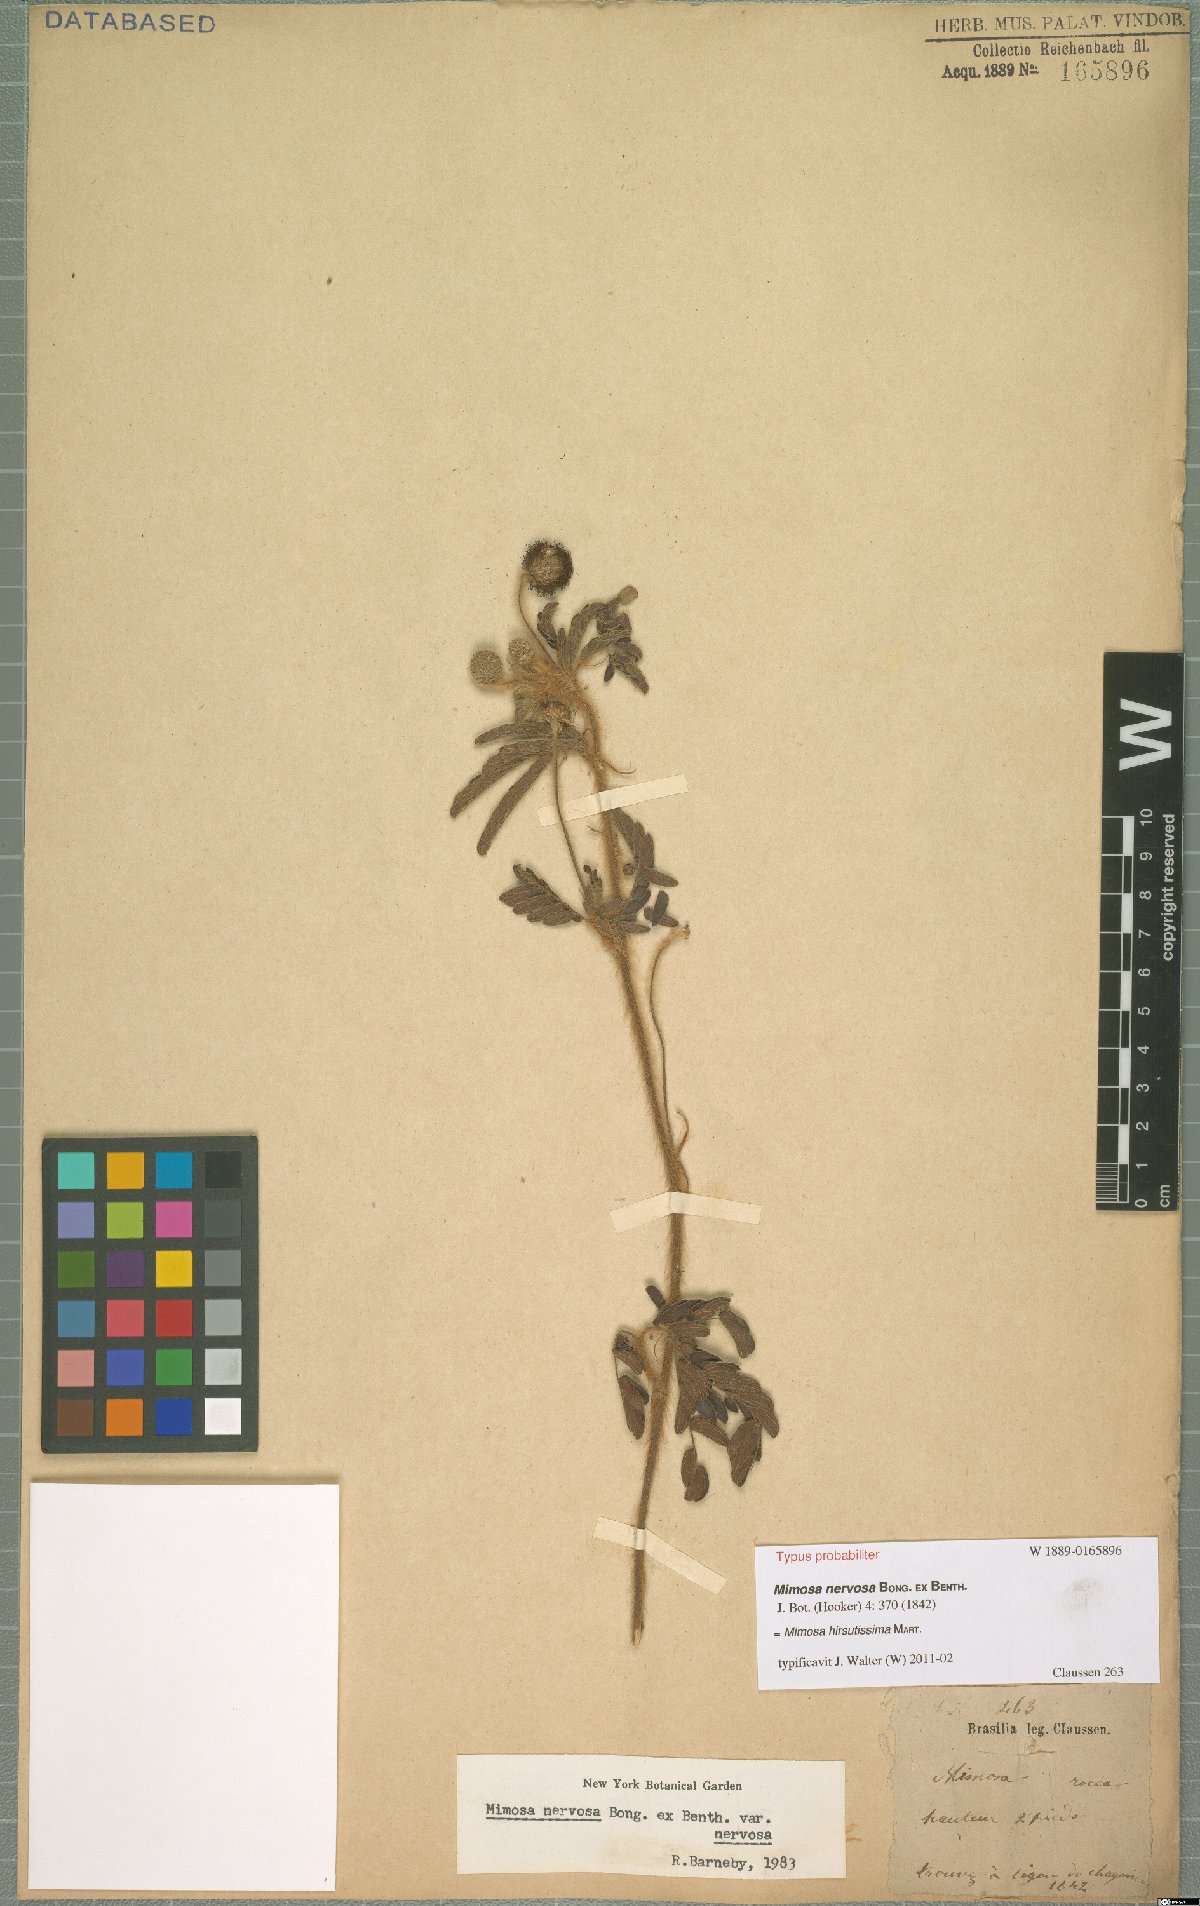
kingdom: Plantae
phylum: Tracheophyta
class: Magnoliopsida
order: Fabales
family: Fabaceae
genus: Mimosa
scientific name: Mimosa hirsutissima
